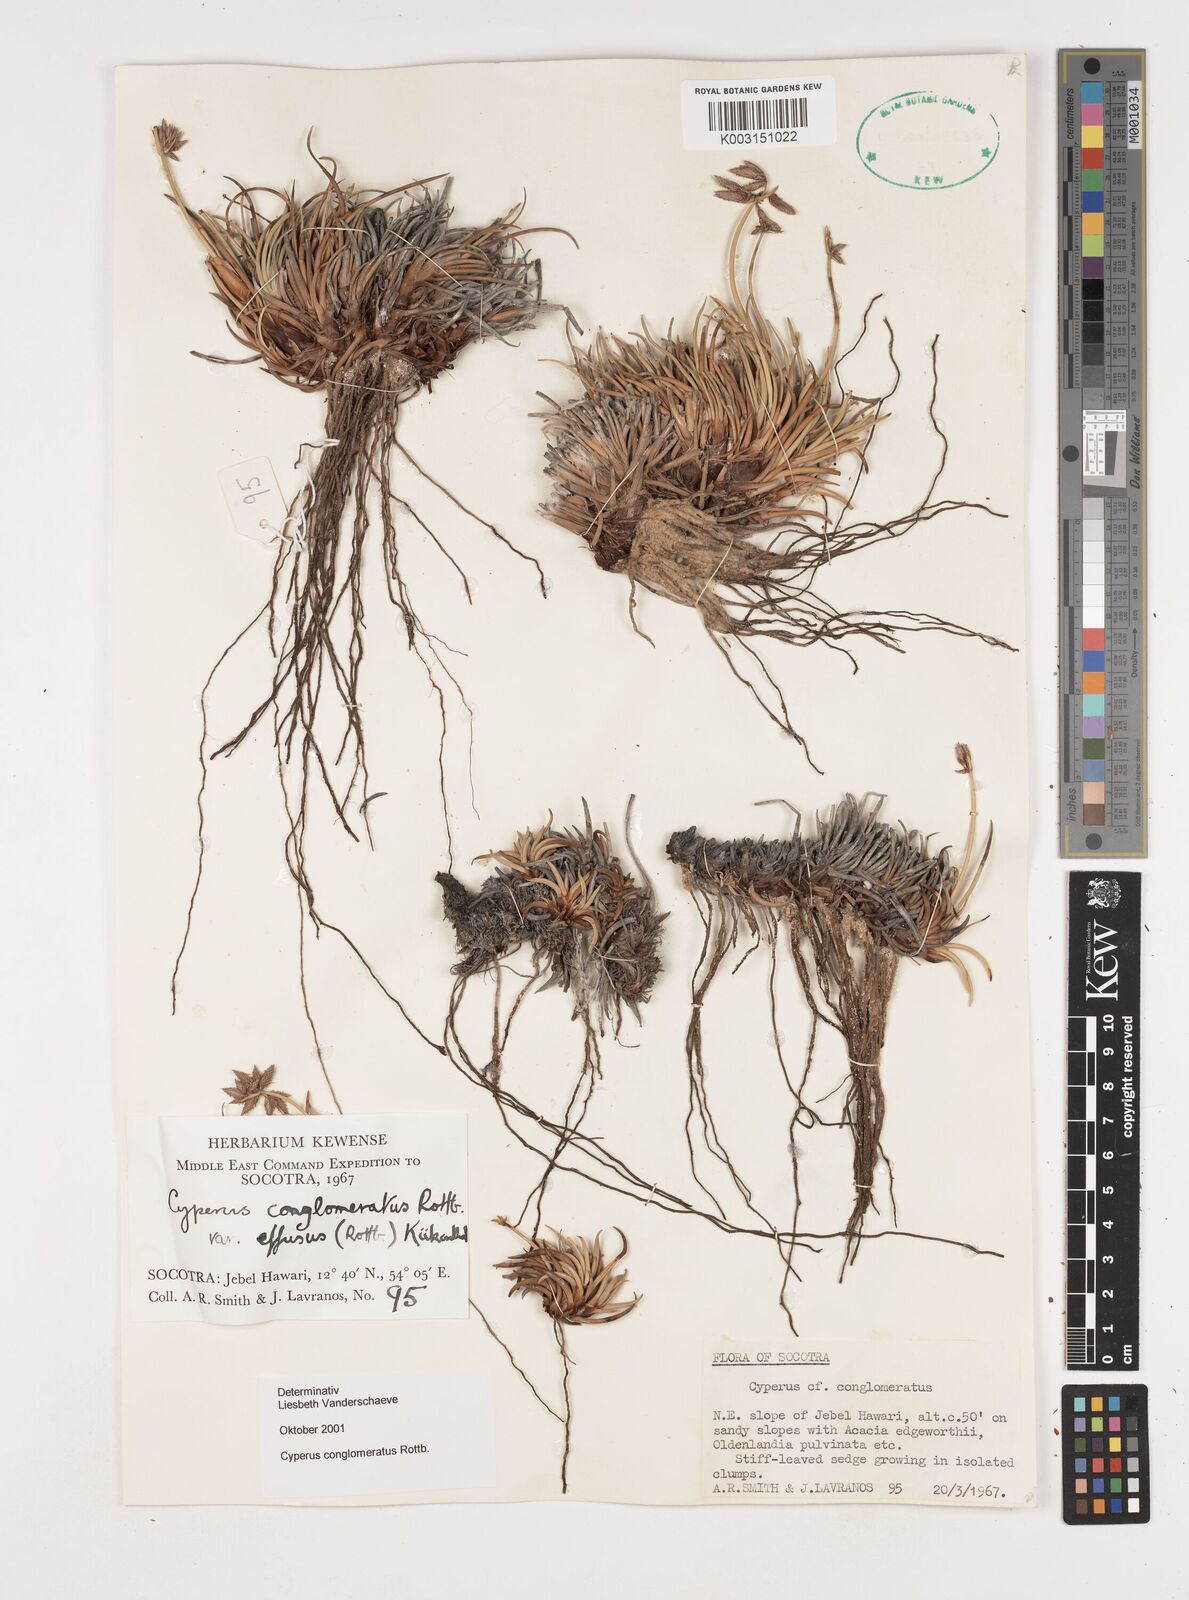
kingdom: Plantae
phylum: Tracheophyta
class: Liliopsida
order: Poales
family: Cyperaceae
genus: Cyperus
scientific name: Cyperus conglomeratus
